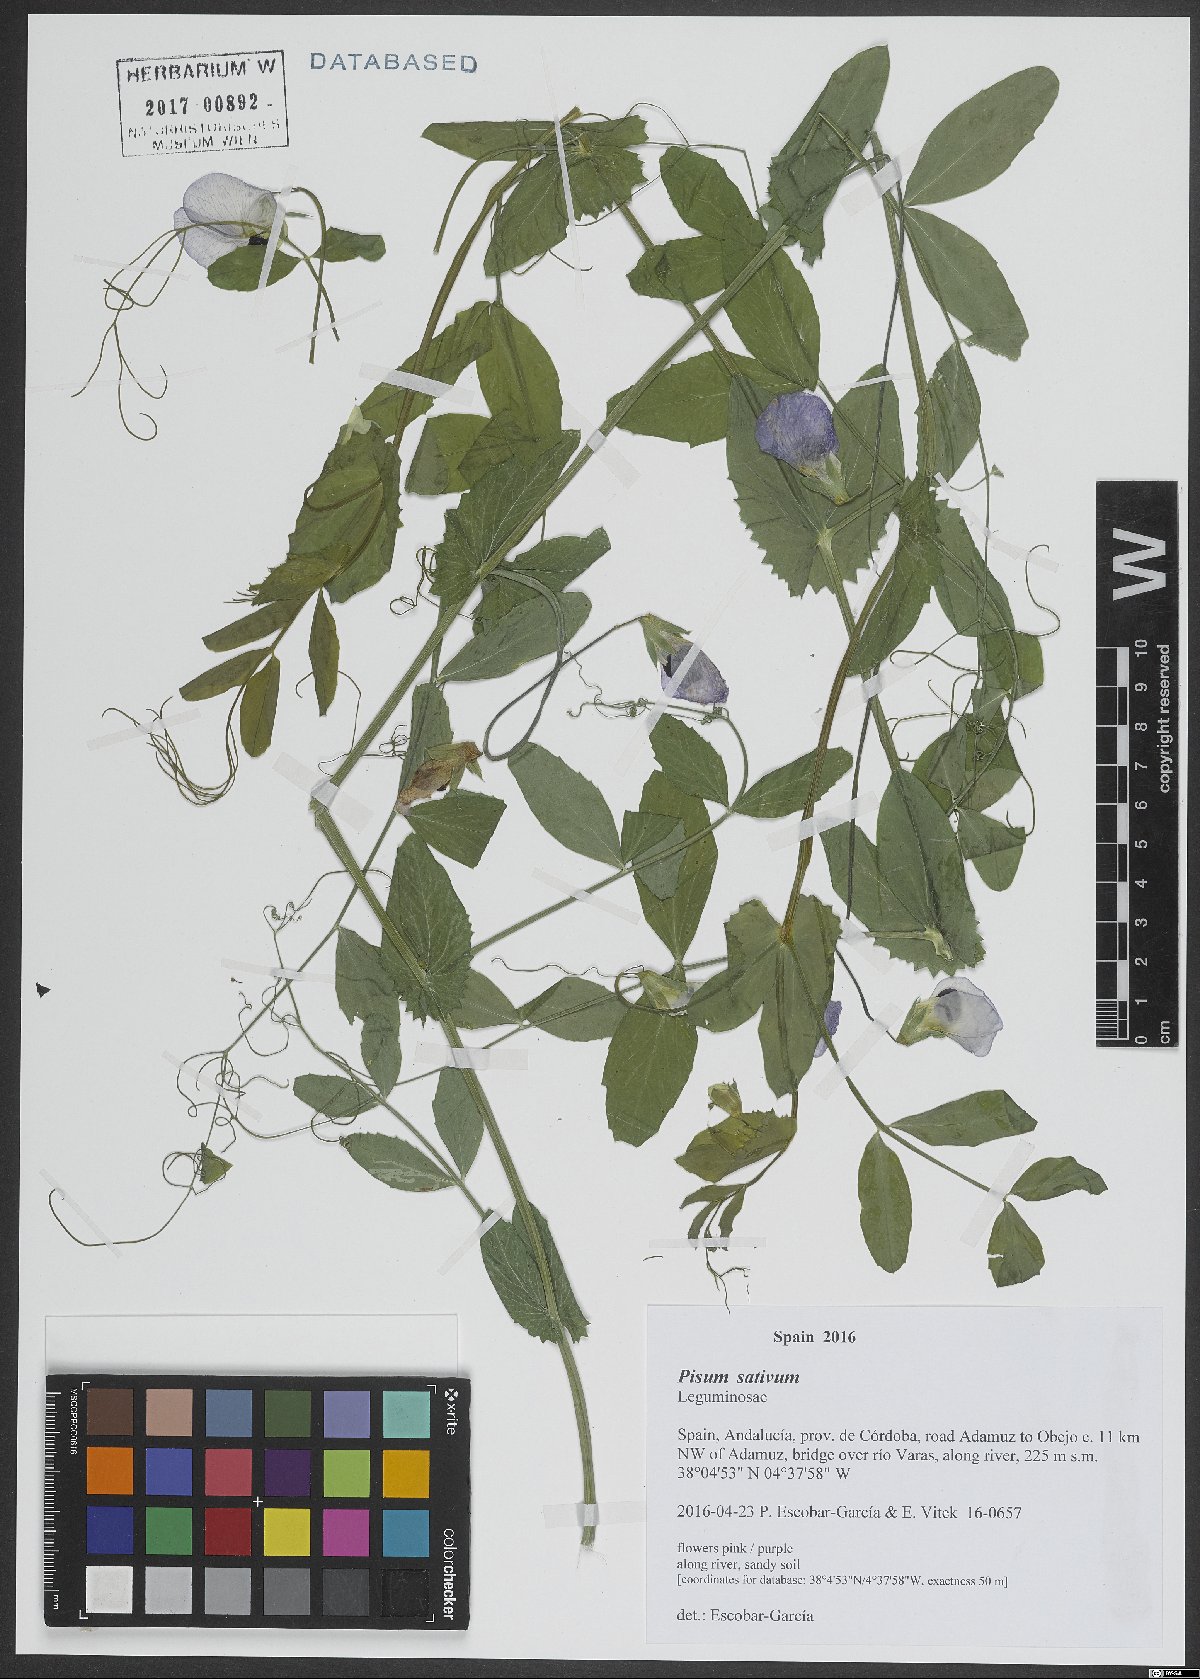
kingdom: Plantae
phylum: Tracheophyta
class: Magnoliopsida
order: Fabales
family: Fabaceae
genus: Lathyrus
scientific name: Lathyrus oleraceus
